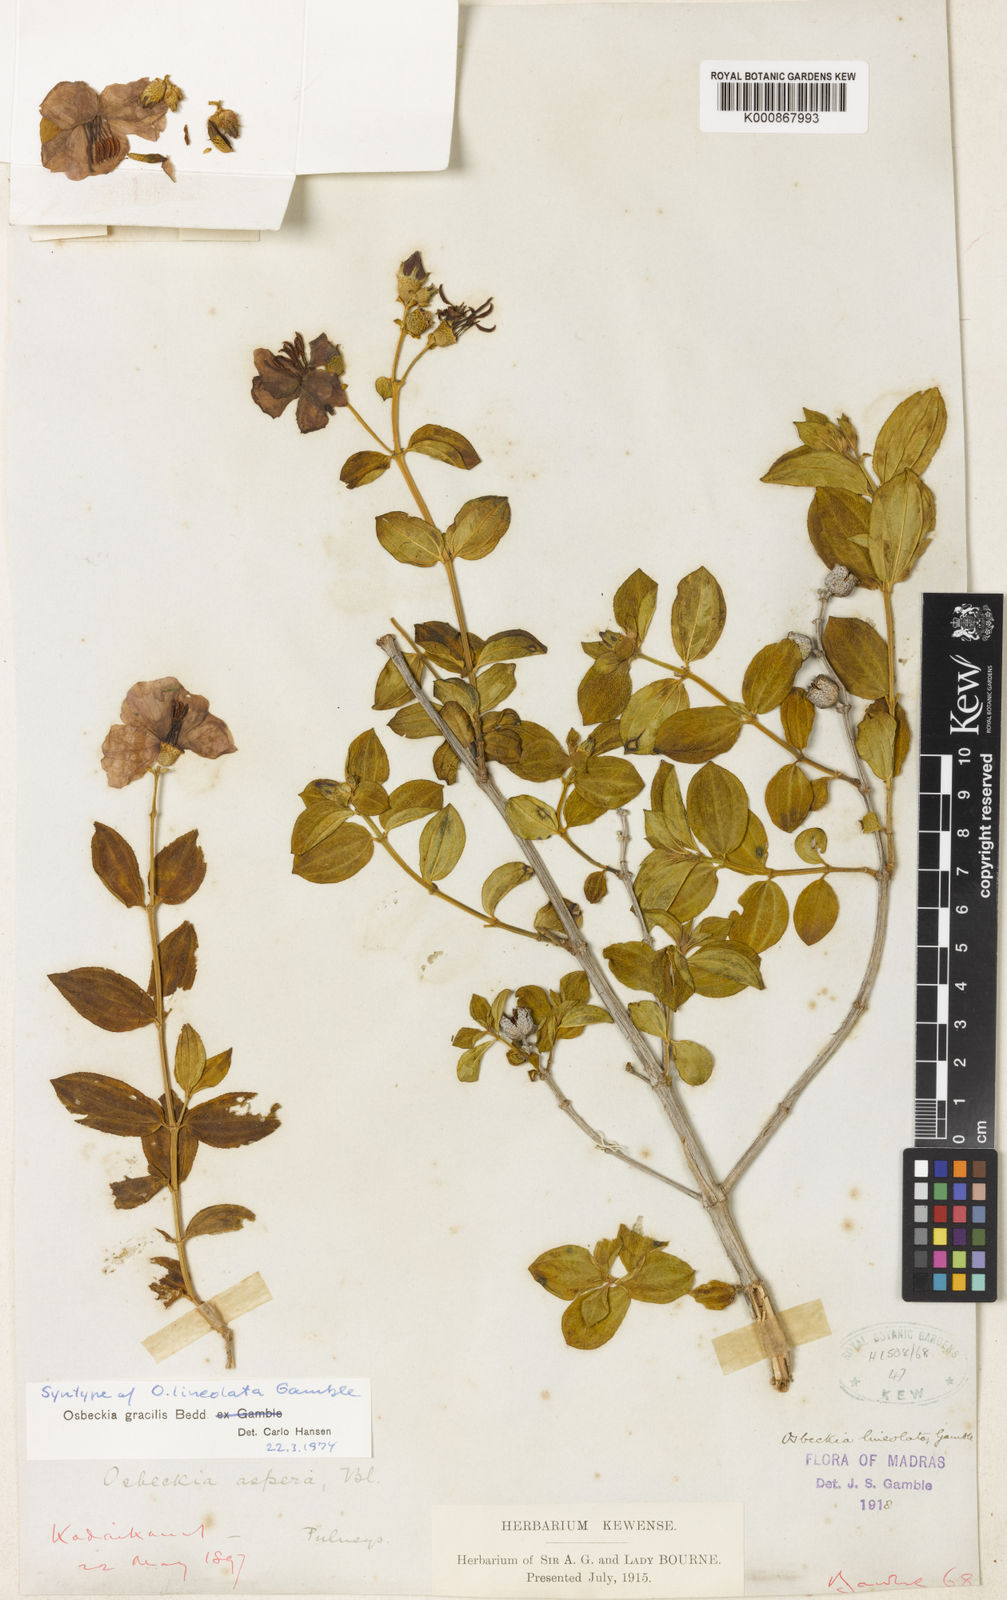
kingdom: Plantae
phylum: Tracheophyta
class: Magnoliopsida
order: Myrtales
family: Melastomataceae
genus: Osbeckia
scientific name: Osbeckia gracilis
